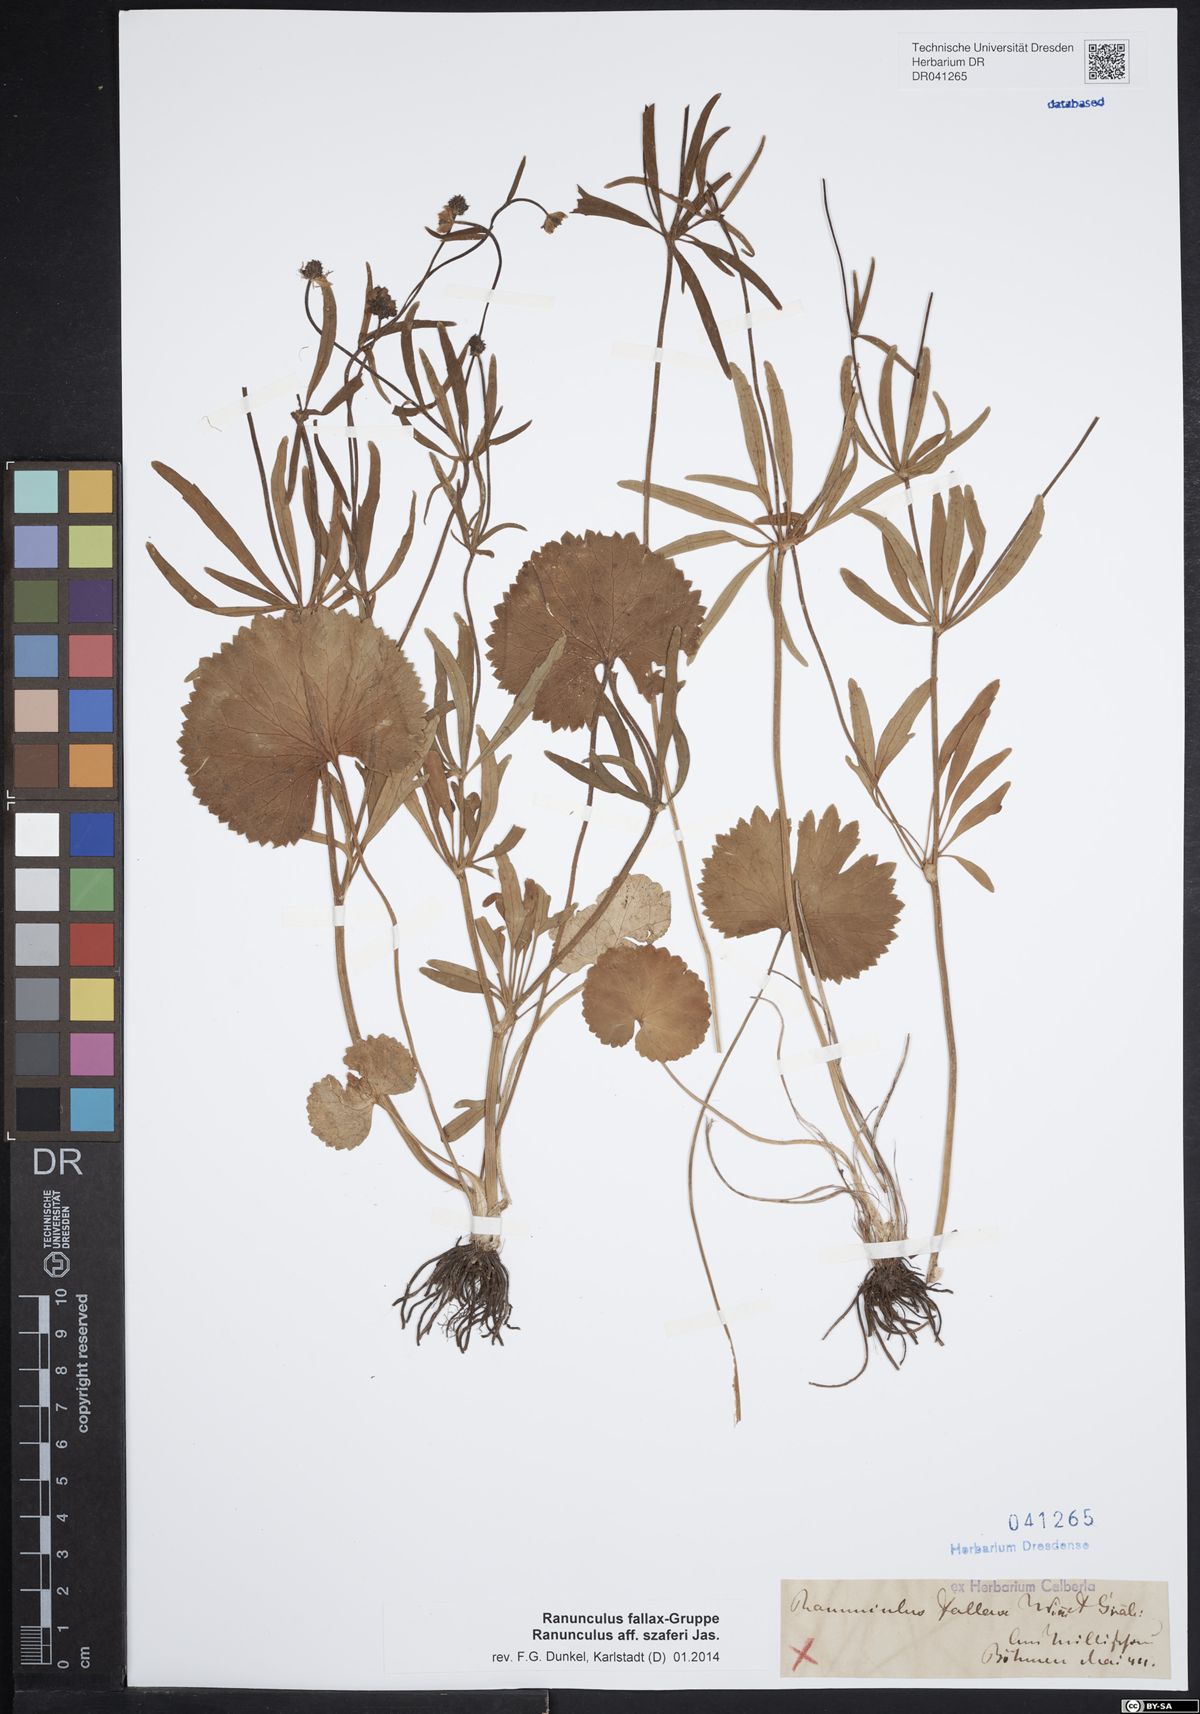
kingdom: Plantae
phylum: Tracheophyta
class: Magnoliopsida
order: Ranunculales
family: Ranunculaceae
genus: Ranunculus
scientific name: Ranunculus szaferi
